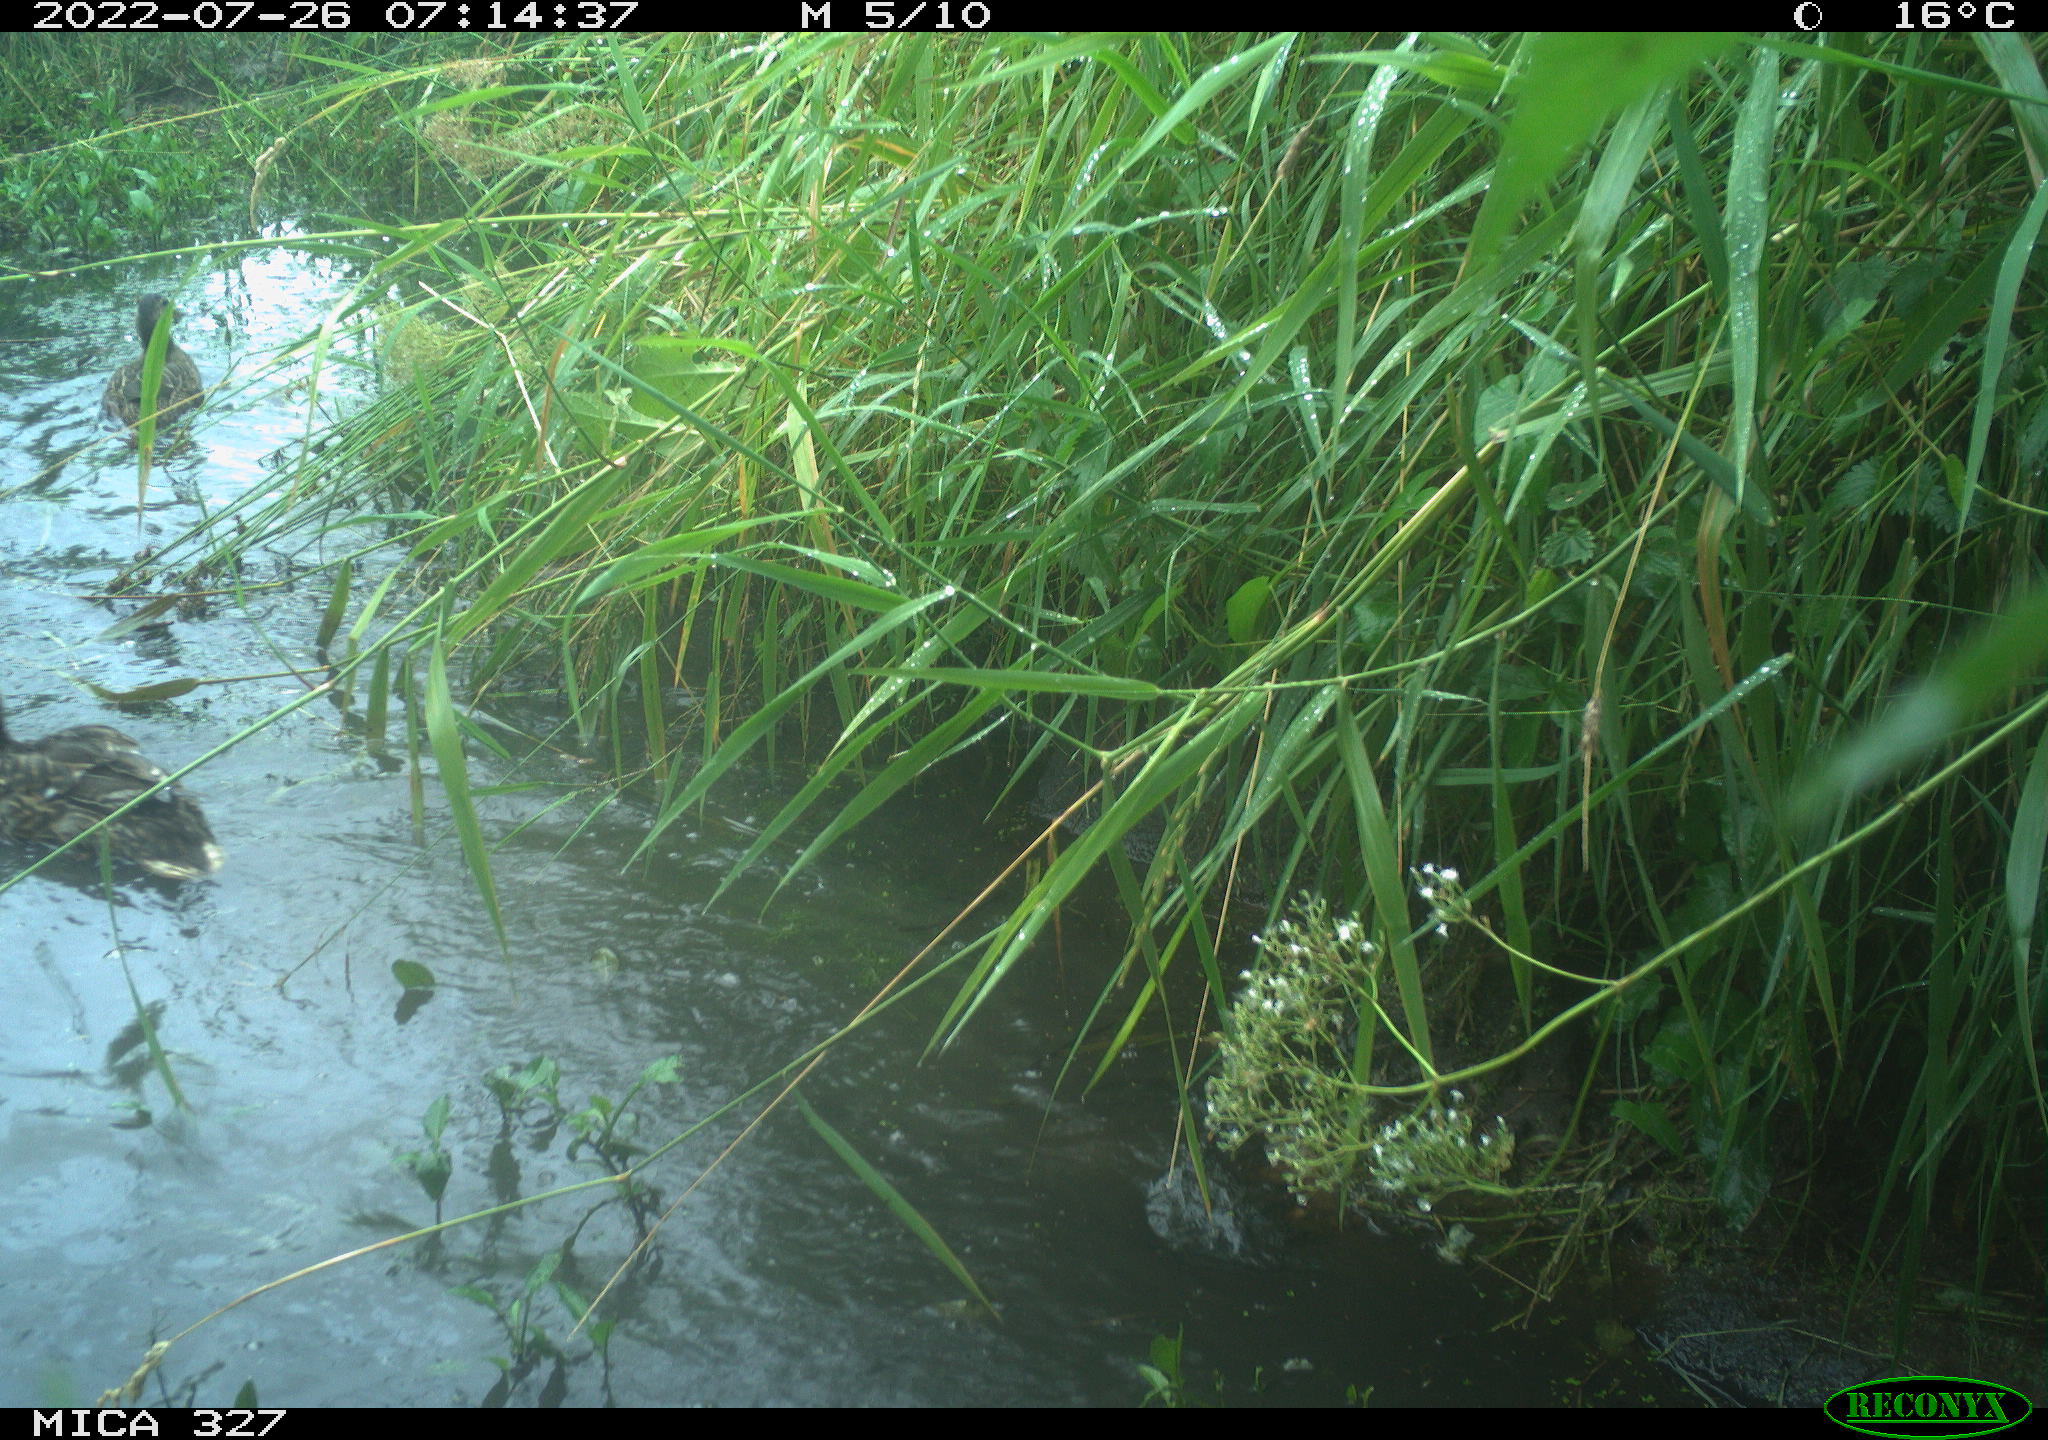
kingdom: Animalia
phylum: Chordata
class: Aves
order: Anseriformes
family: Anatidae
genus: Anas
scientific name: Anas
